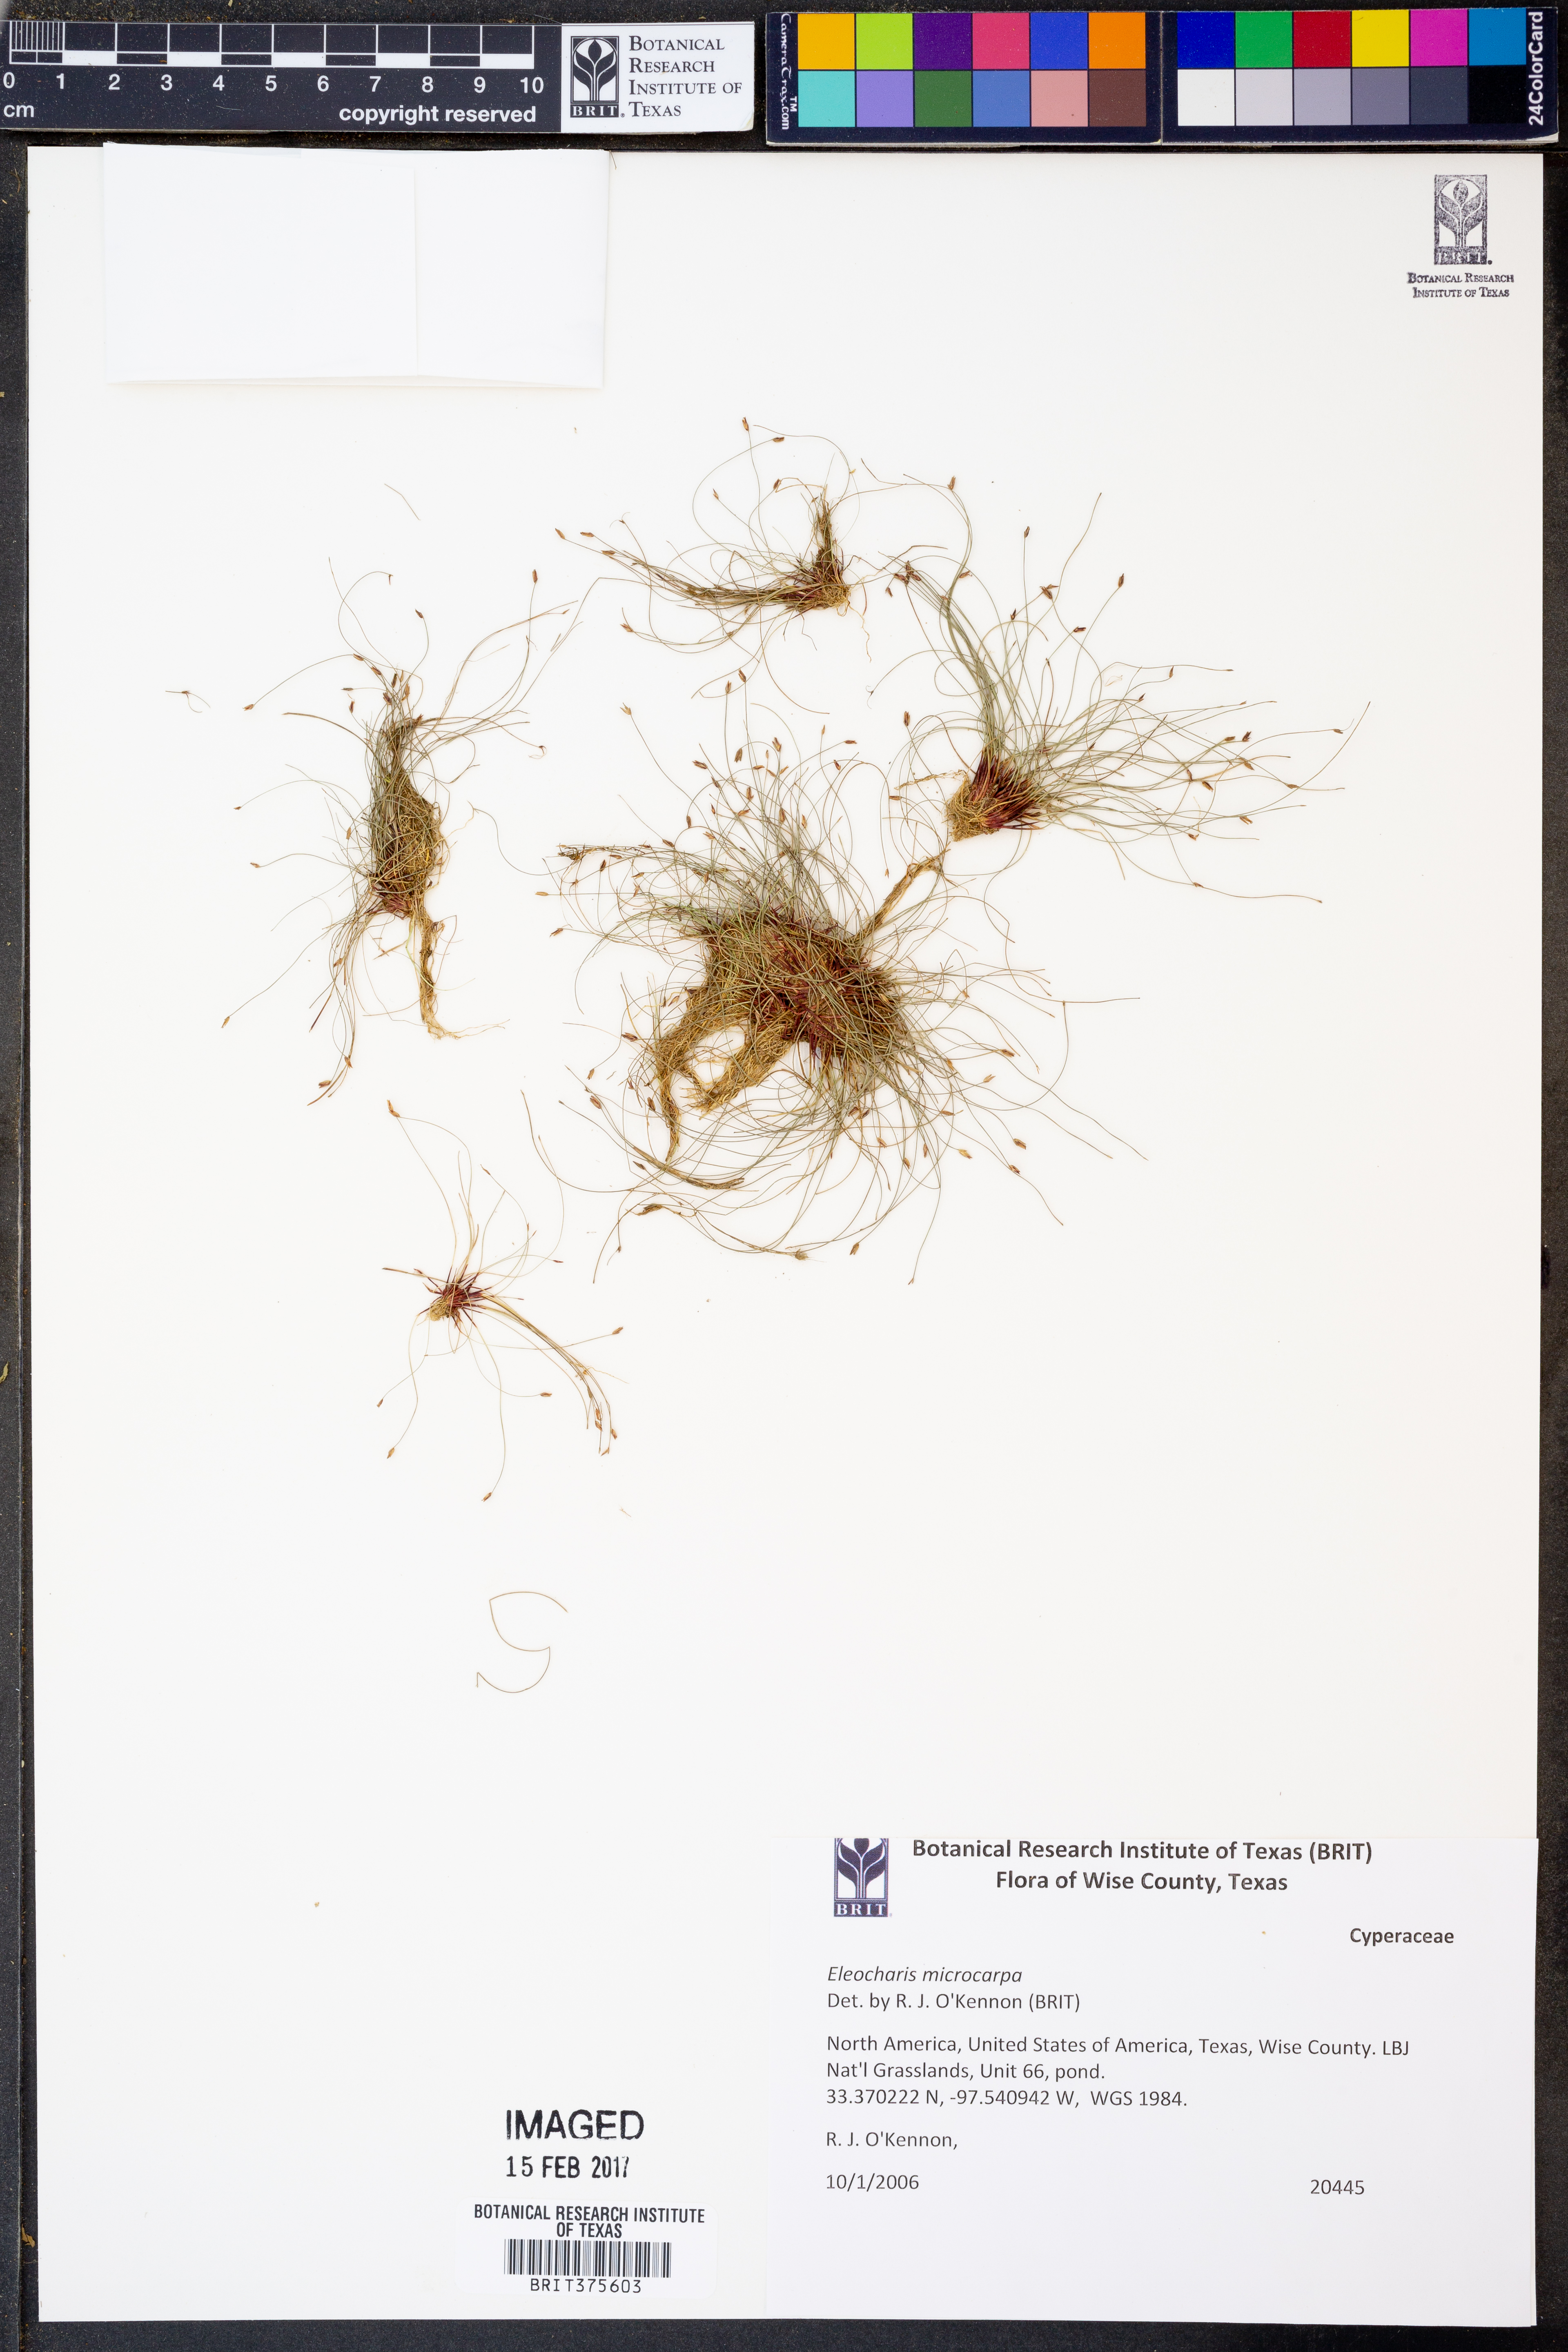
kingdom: Plantae
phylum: Tracheophyta
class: Liliopsida
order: Poales
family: Cyperaceae
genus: Eleocharis
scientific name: Eleocharis microcarpa
